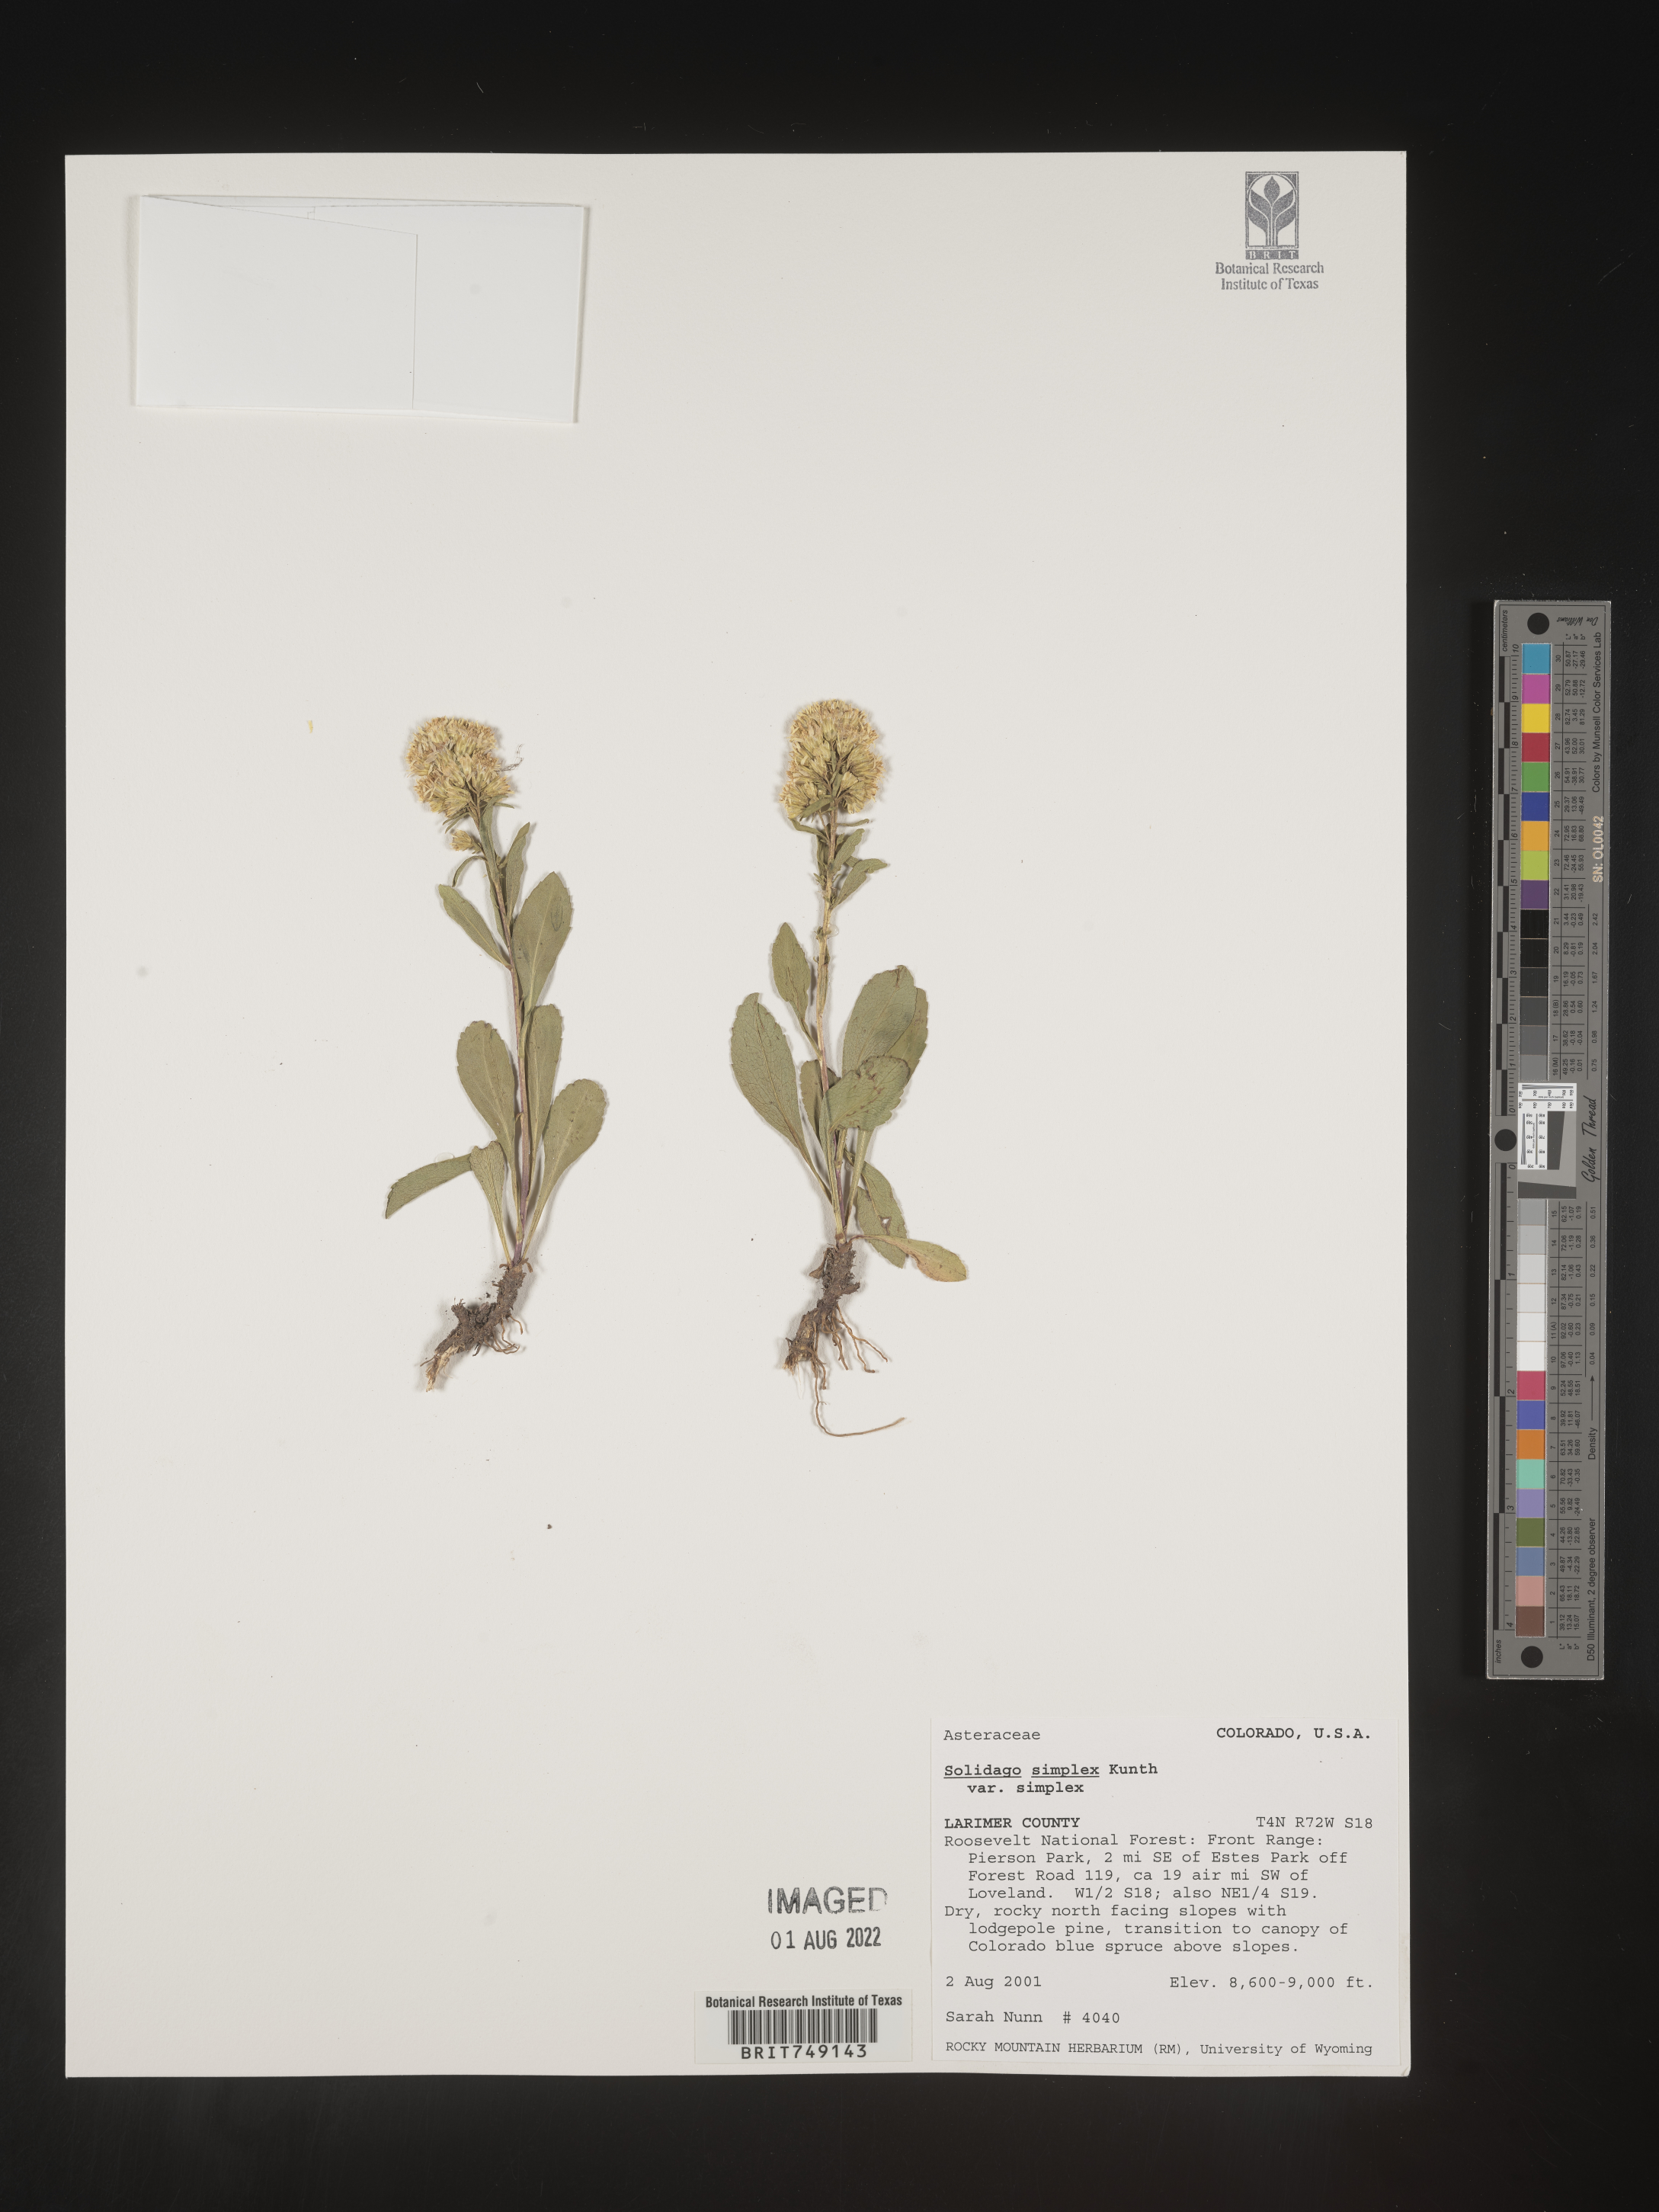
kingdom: Plantae
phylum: Tracheophyta
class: Magnoliopsida
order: Asterales
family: Asteraceae
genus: Solidago
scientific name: Solidago simplex
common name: Sticky goldenrod
